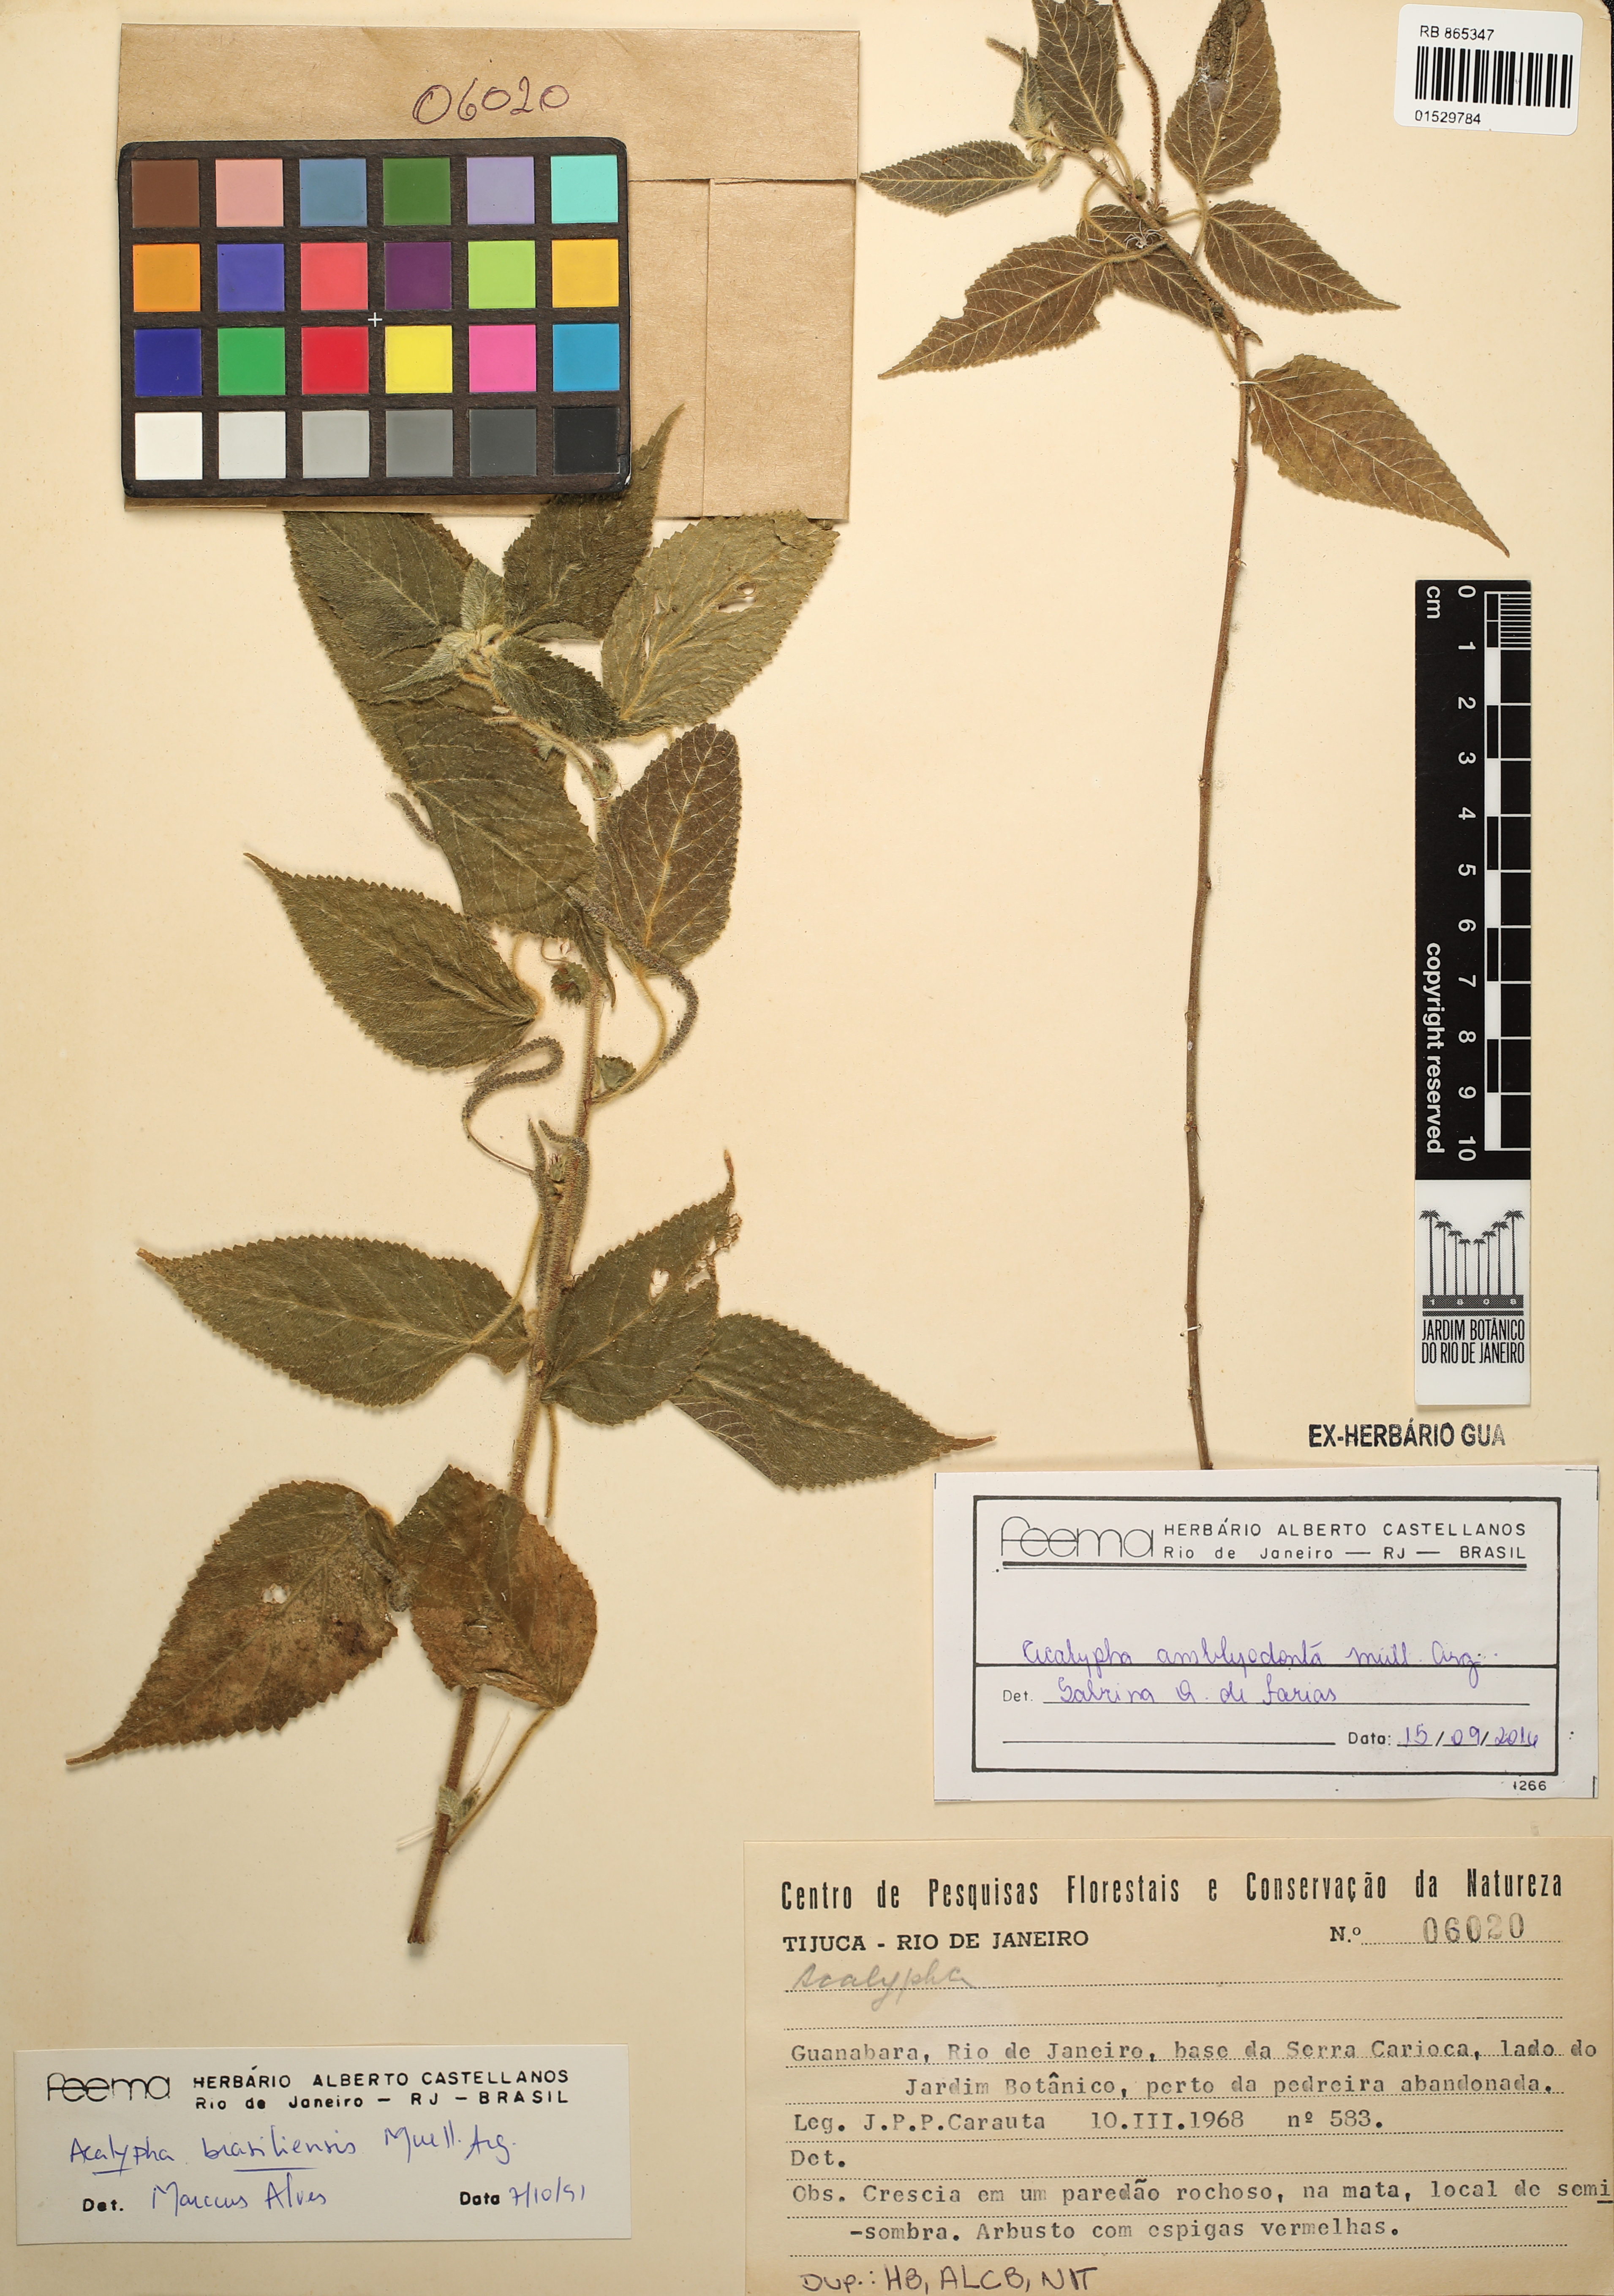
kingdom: Plantae
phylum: Tracheophyta
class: Magnoliopsida
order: Malpighiales
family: Euphorbiaceae
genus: Acalypha
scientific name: Acalypha amblyodonta
